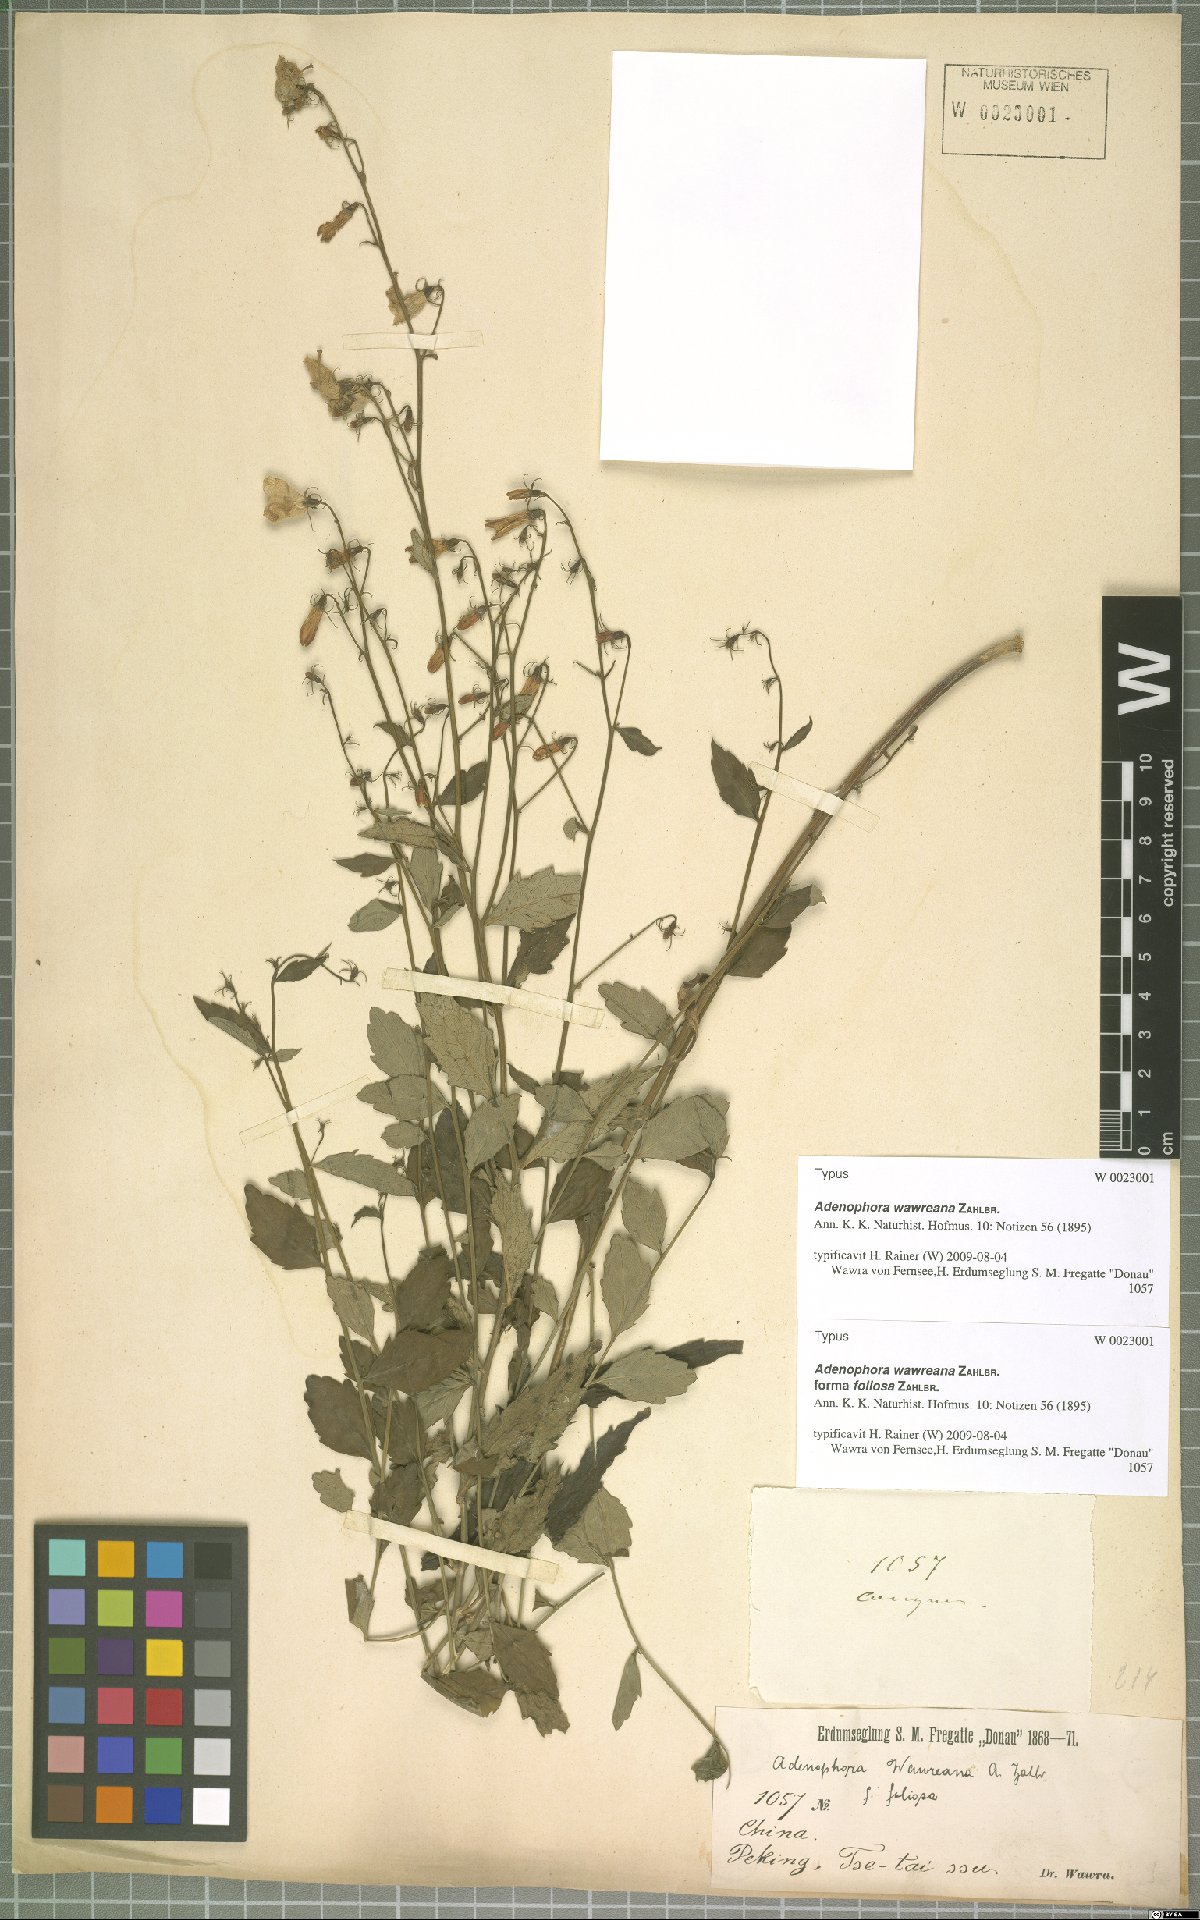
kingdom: Plantae
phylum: Tracheophyta
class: Magnoliopsida
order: Asterales
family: Campanulaceae
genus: Adenophora
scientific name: Adenophora potaninii
